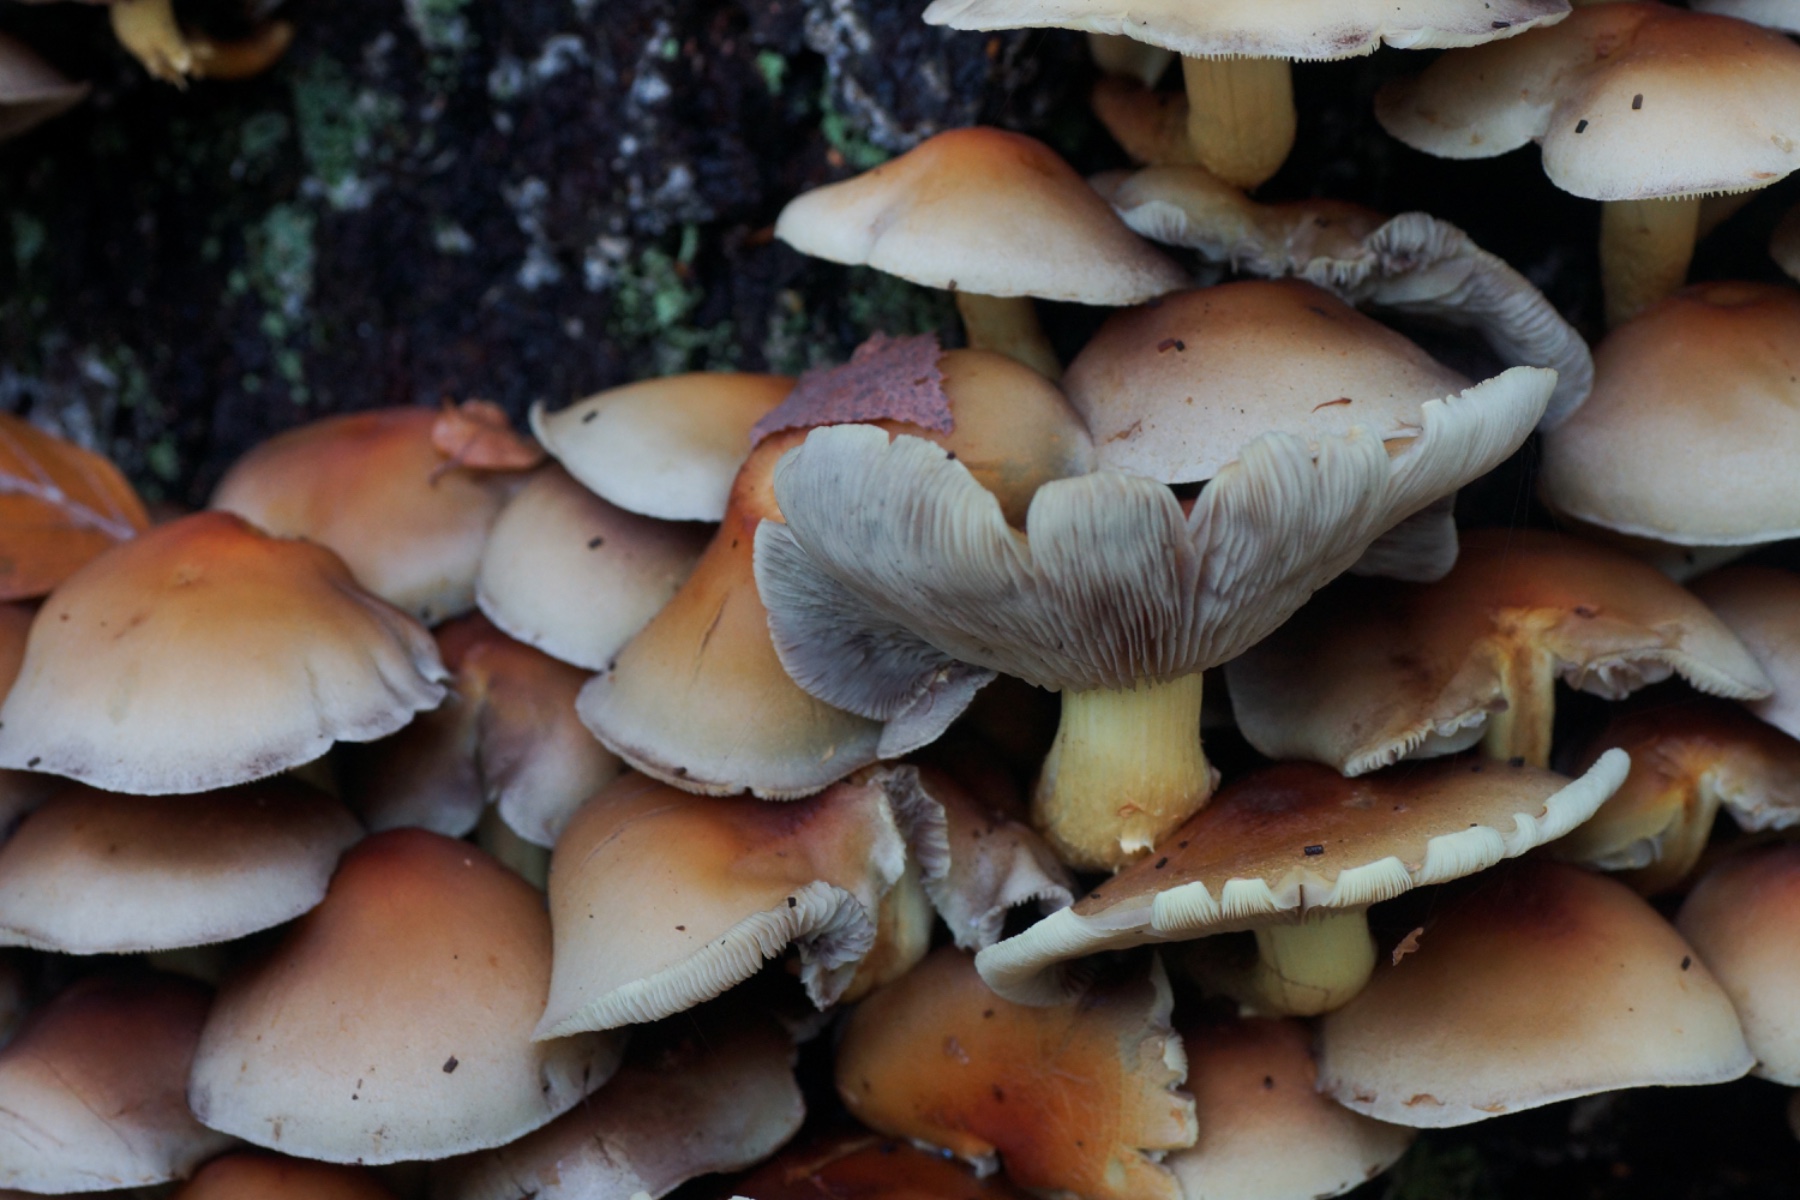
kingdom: Fungi
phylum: Basidiomycota
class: Agaricomycetes
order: Agaricales
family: Strophariaceae
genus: Hypholoma
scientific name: Hypholoma lateritium
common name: teglrød svovlhat
